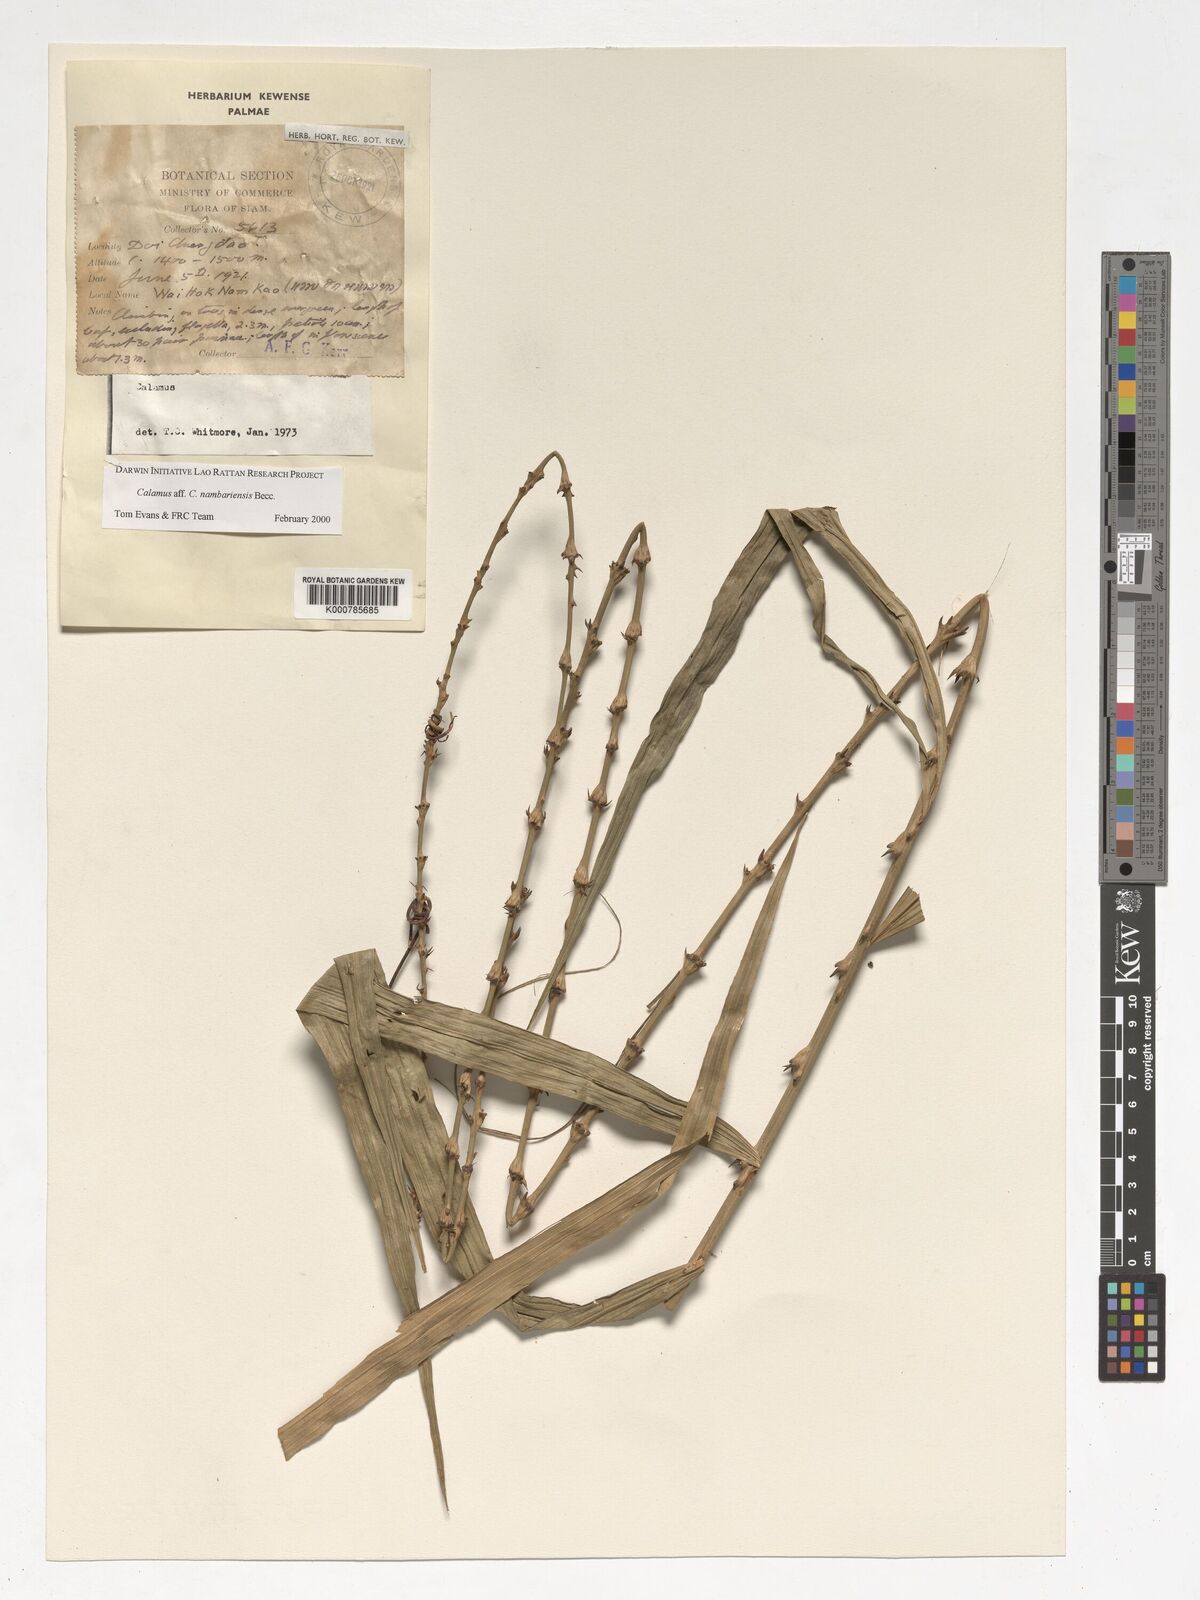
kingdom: Plantae
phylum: Tracheophyta
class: Liliopsida
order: Arecales
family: Arecaceae
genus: Calamus
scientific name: Calamus inermis
